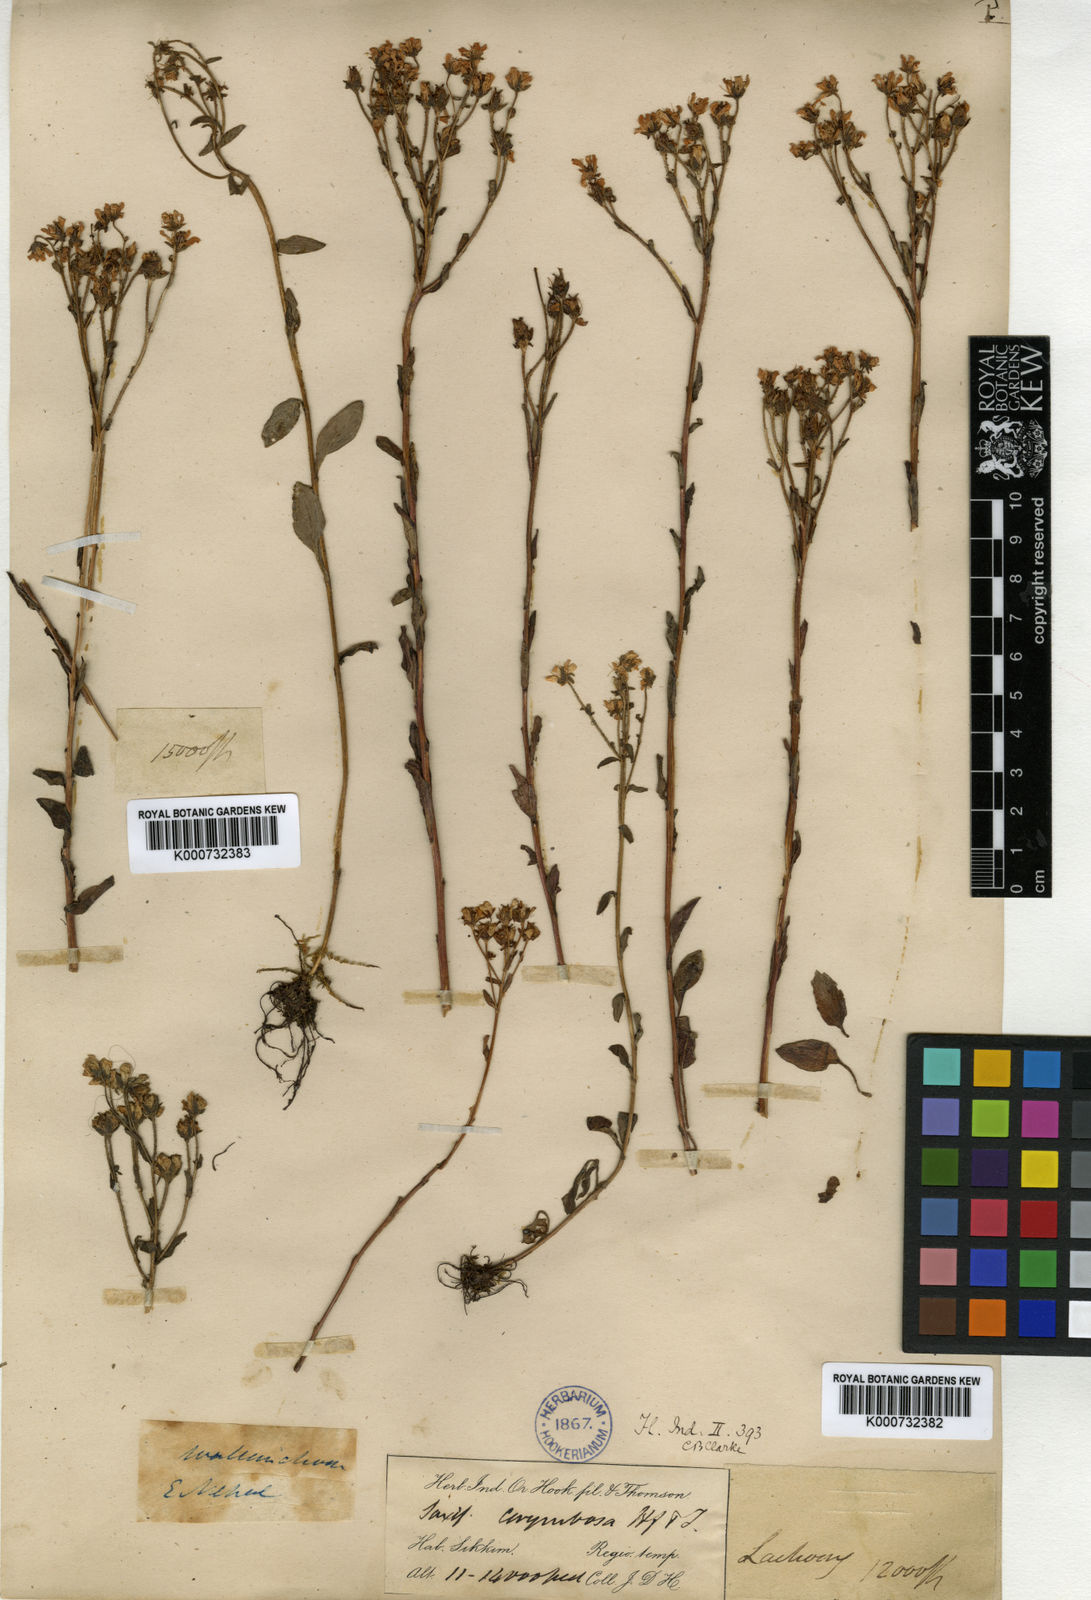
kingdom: Plantae
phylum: Tracheophyta
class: Magnoliopsida
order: Saxifragales
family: Saxifragaceae
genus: Saxifraga
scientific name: Saxifraga granulata
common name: Meadow saxifrage
